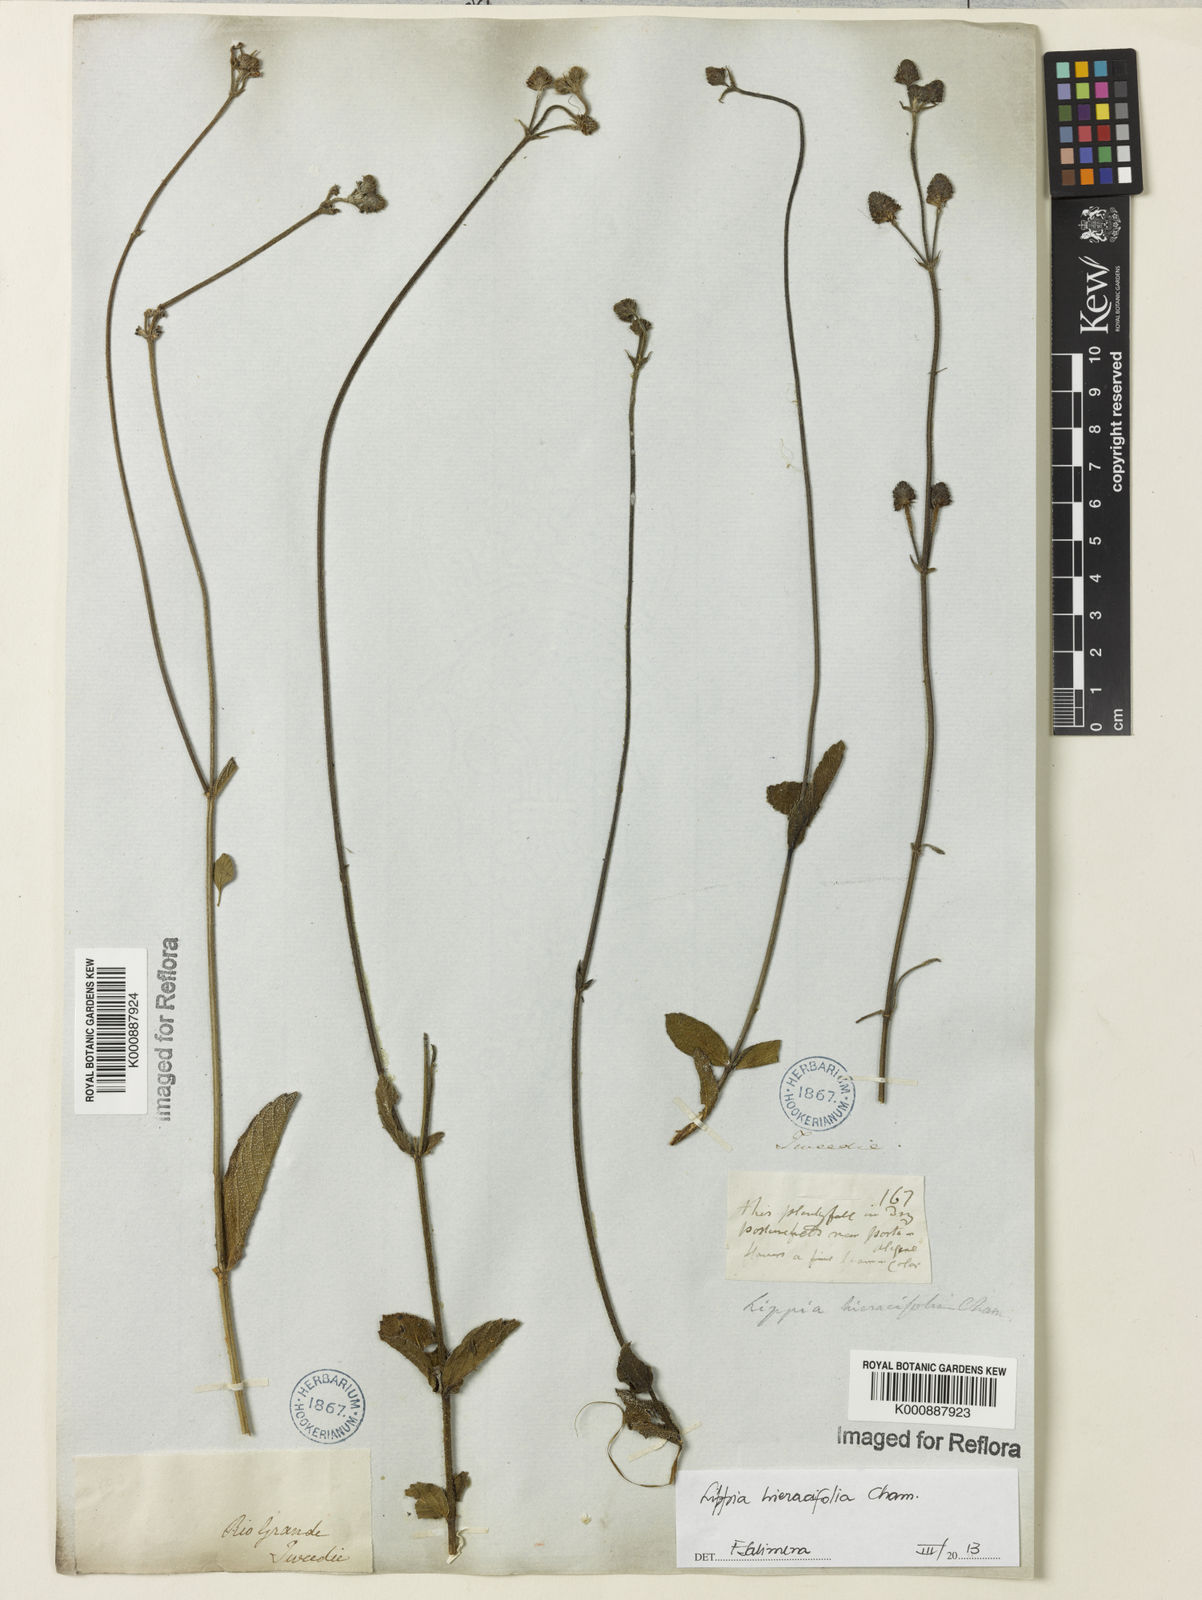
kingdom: Plantae
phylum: Tracheophyta
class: Magnoliopsida
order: Lamiales
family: Verbenaceae
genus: Lippia
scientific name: Lippia hieraciifolia
